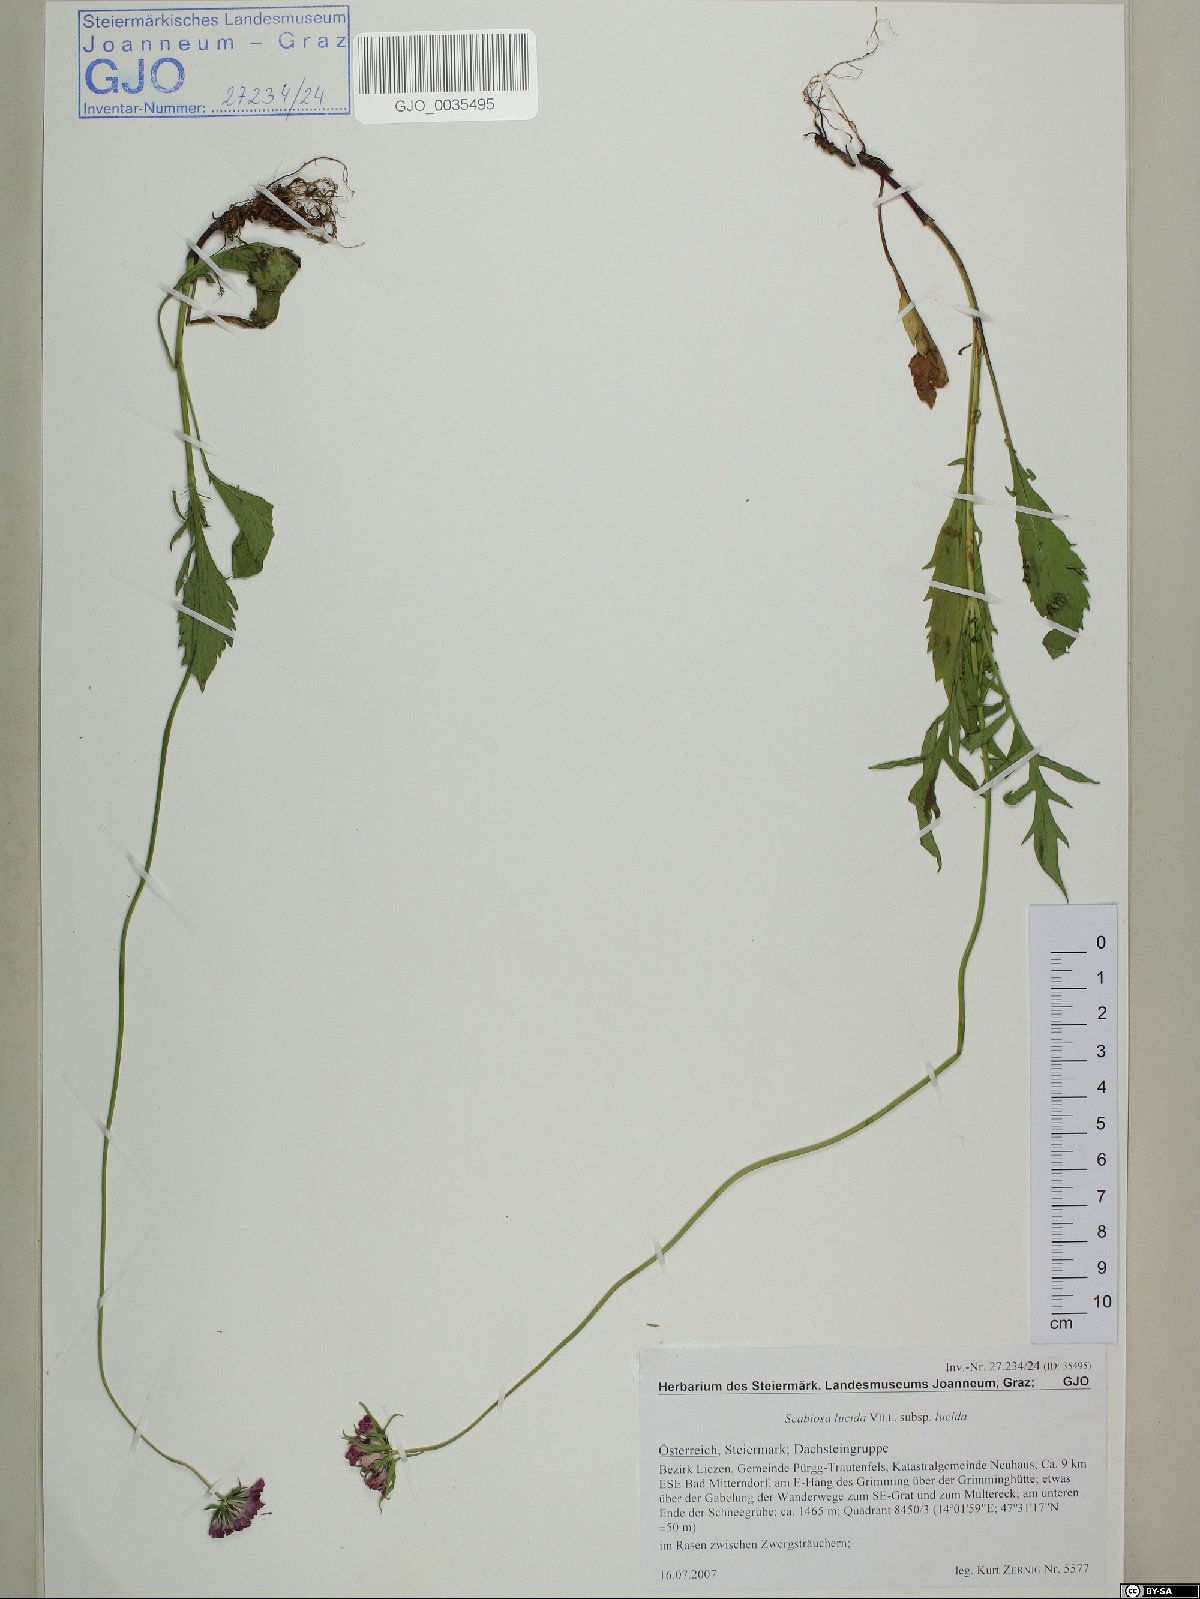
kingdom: Plantae
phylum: Tracheophyta
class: Magnoliopsida
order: Dipsacales
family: Caprifoliaceae
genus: Scabiosa
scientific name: Scabiosa lucida
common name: Shining scabious
